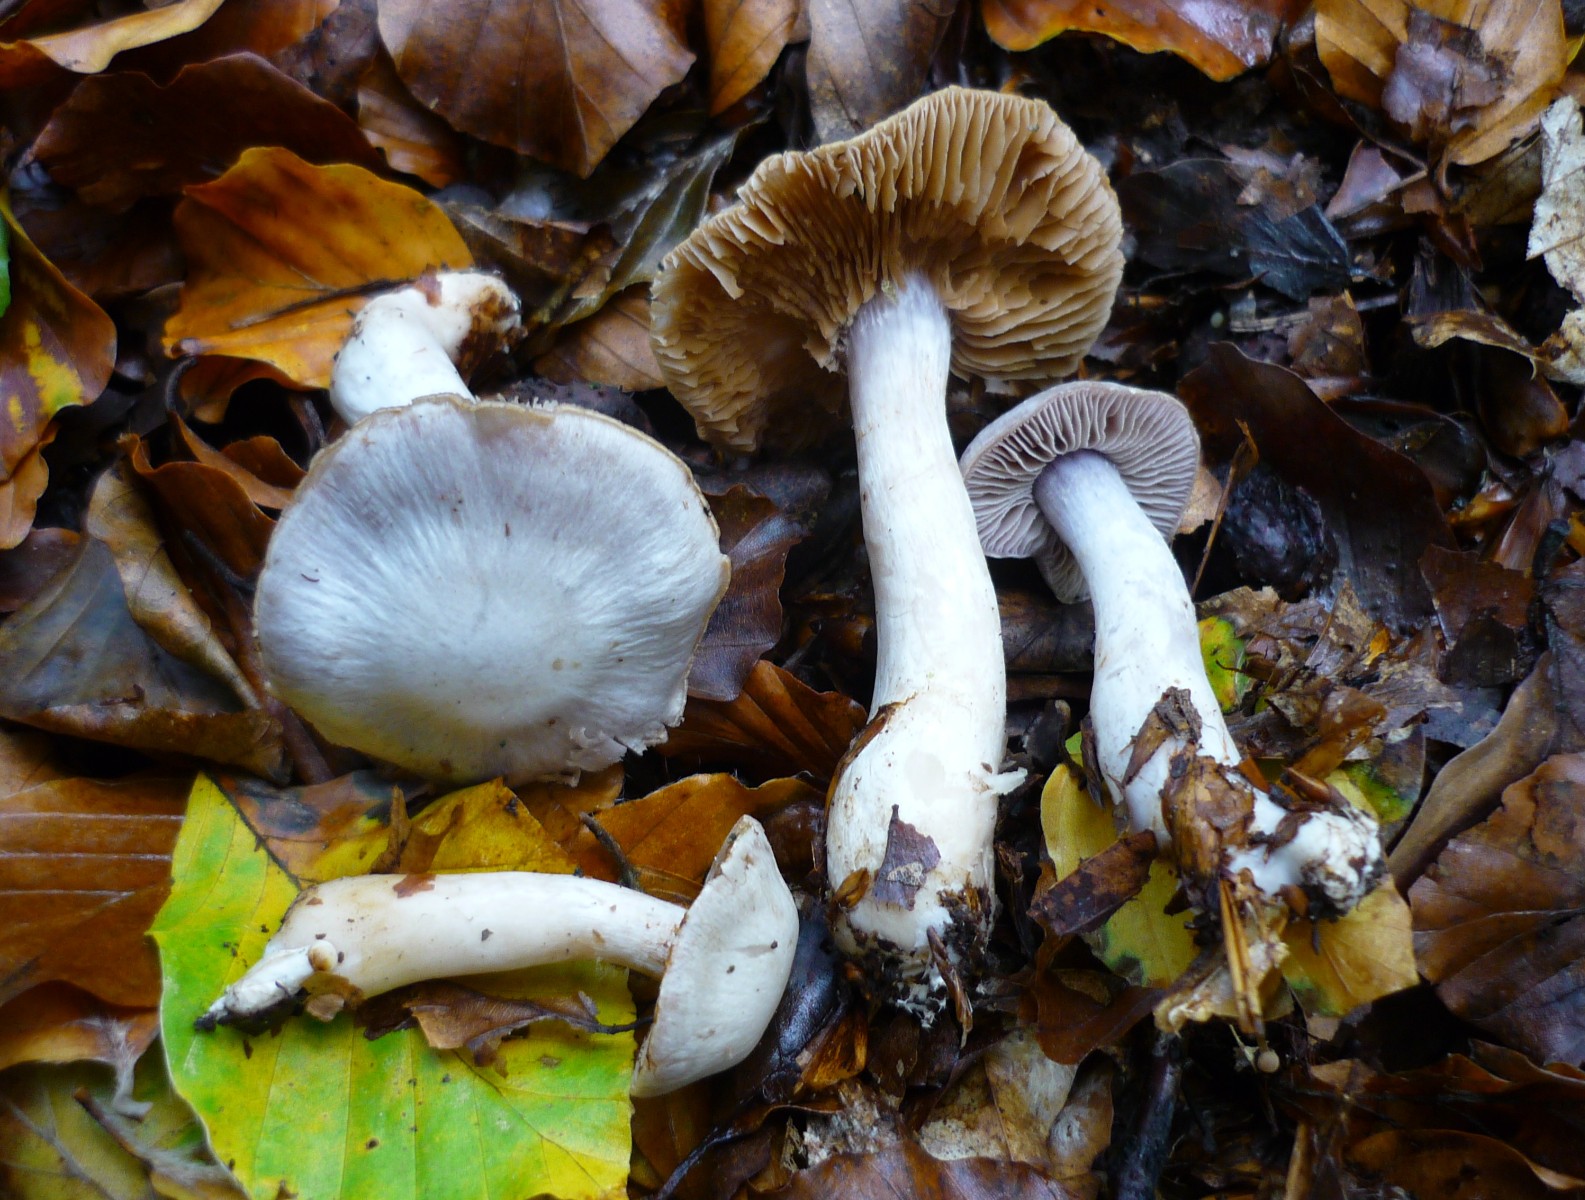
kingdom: Fungi
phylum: Basidiomycota
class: Agaricomycetes
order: Agaricales
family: Cortinariaceae
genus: Cortinarius
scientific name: Cortinarius alboviolaceus
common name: lysviolet slørhat
